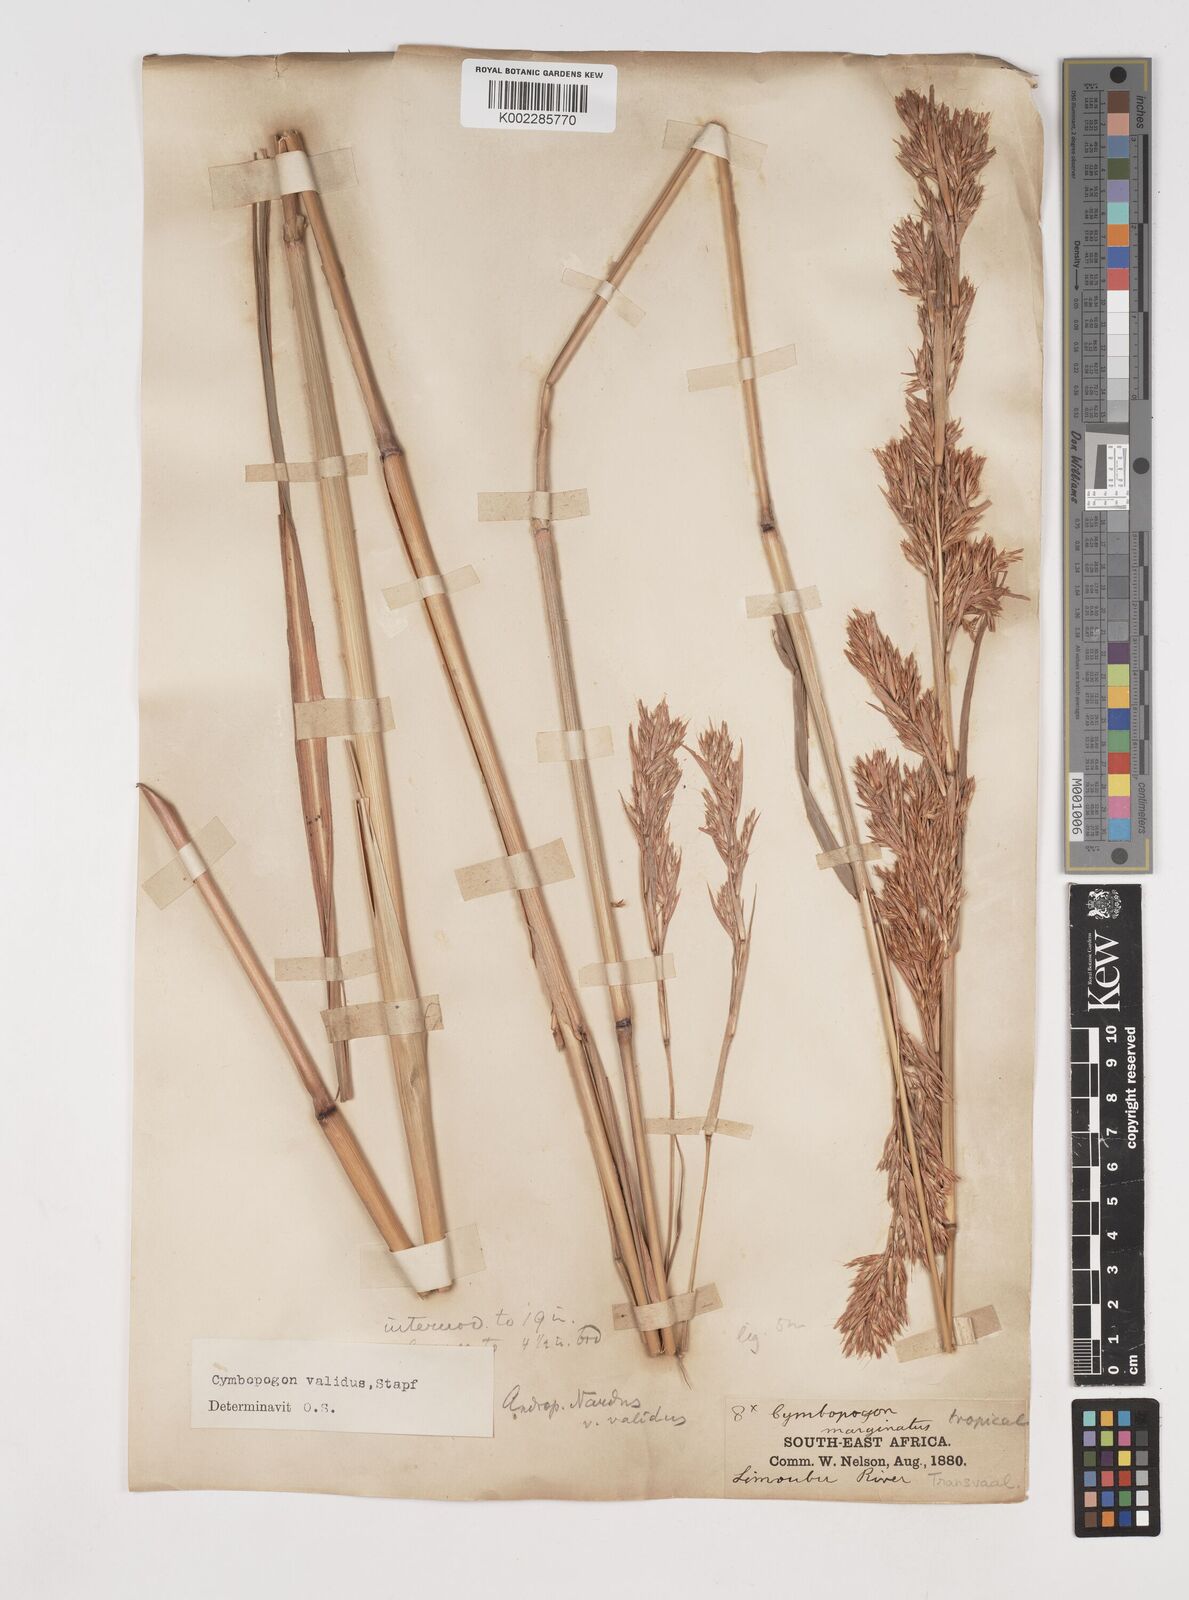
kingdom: Plantae
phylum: Tracheophyta
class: Liliopsida
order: Poales
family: Poaceae
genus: Cymbopogon
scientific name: Cymbopogon nardus
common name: Giant turpentine grass
